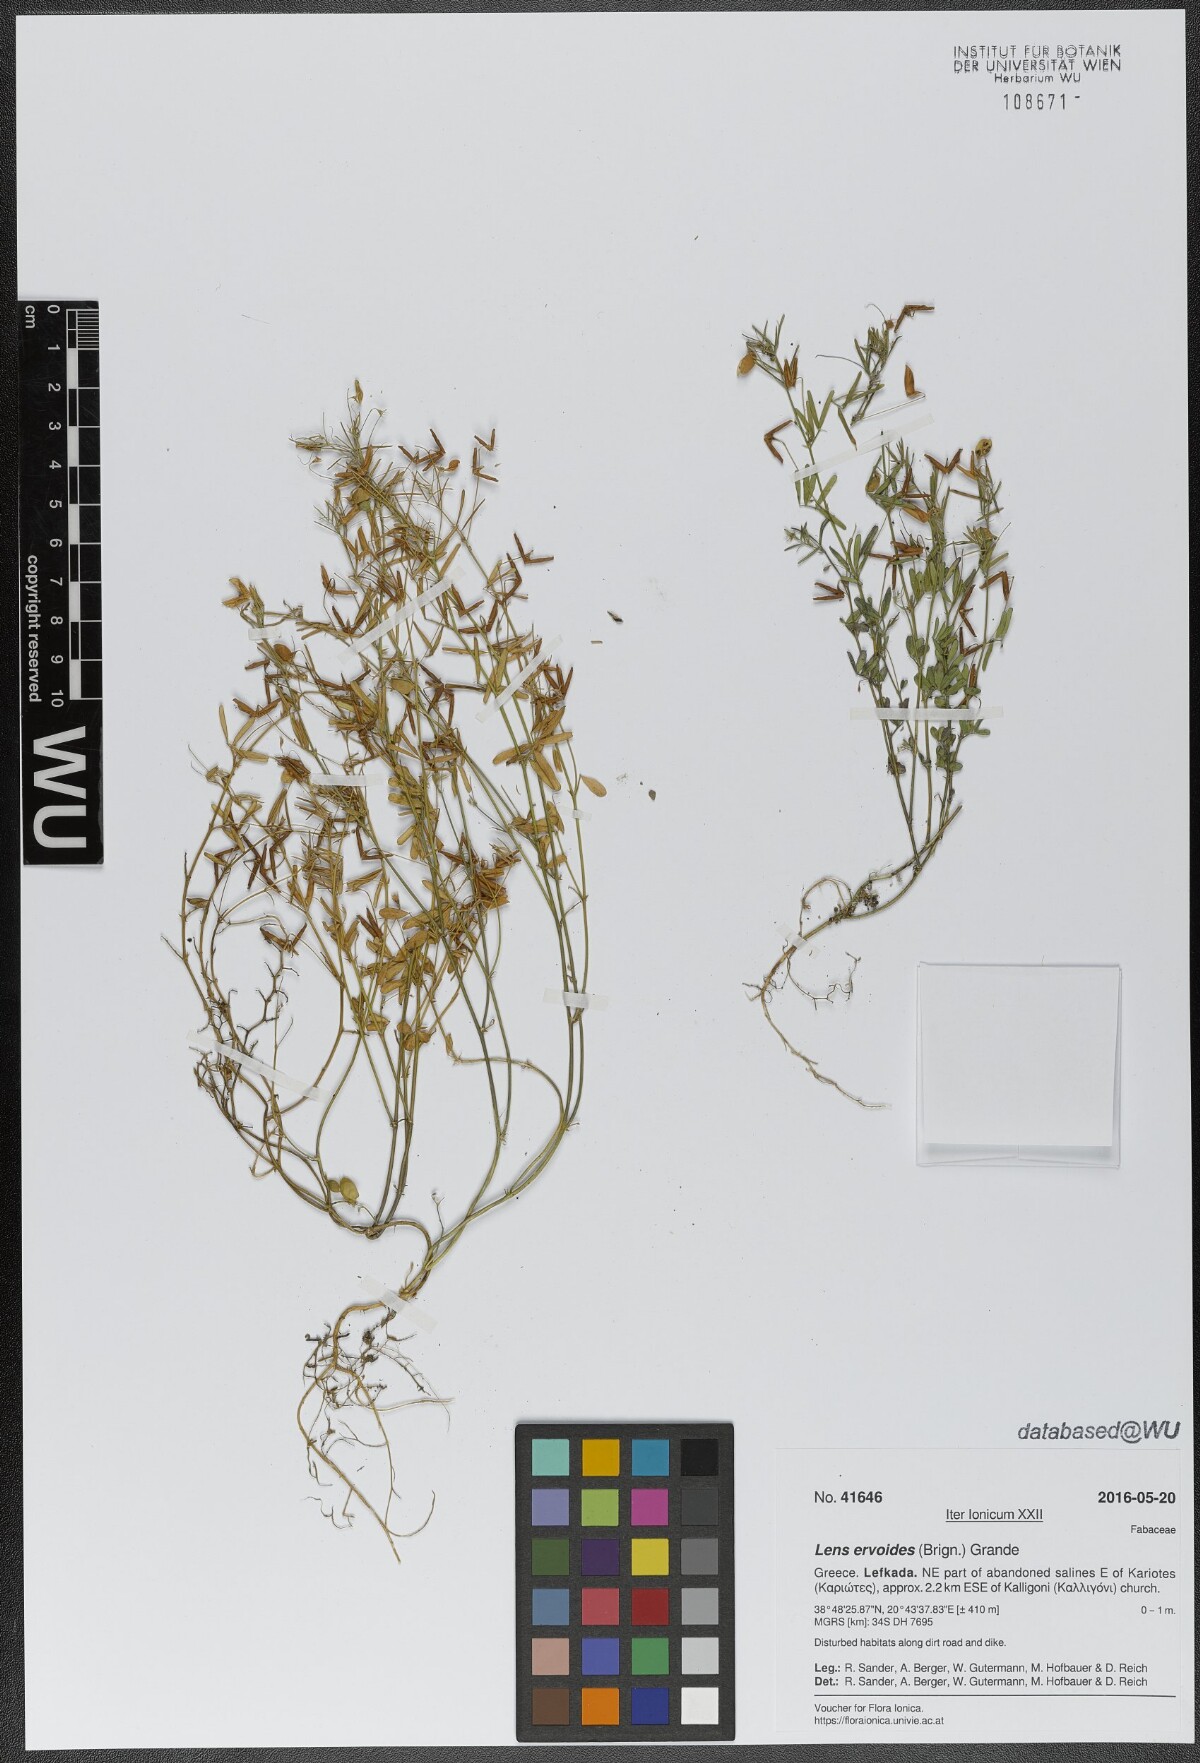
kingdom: Plantae
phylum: Tracheophyta
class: Magnoliopsida
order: Fabales
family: Fabaceae
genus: Vicia
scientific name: Vicia lenticula
